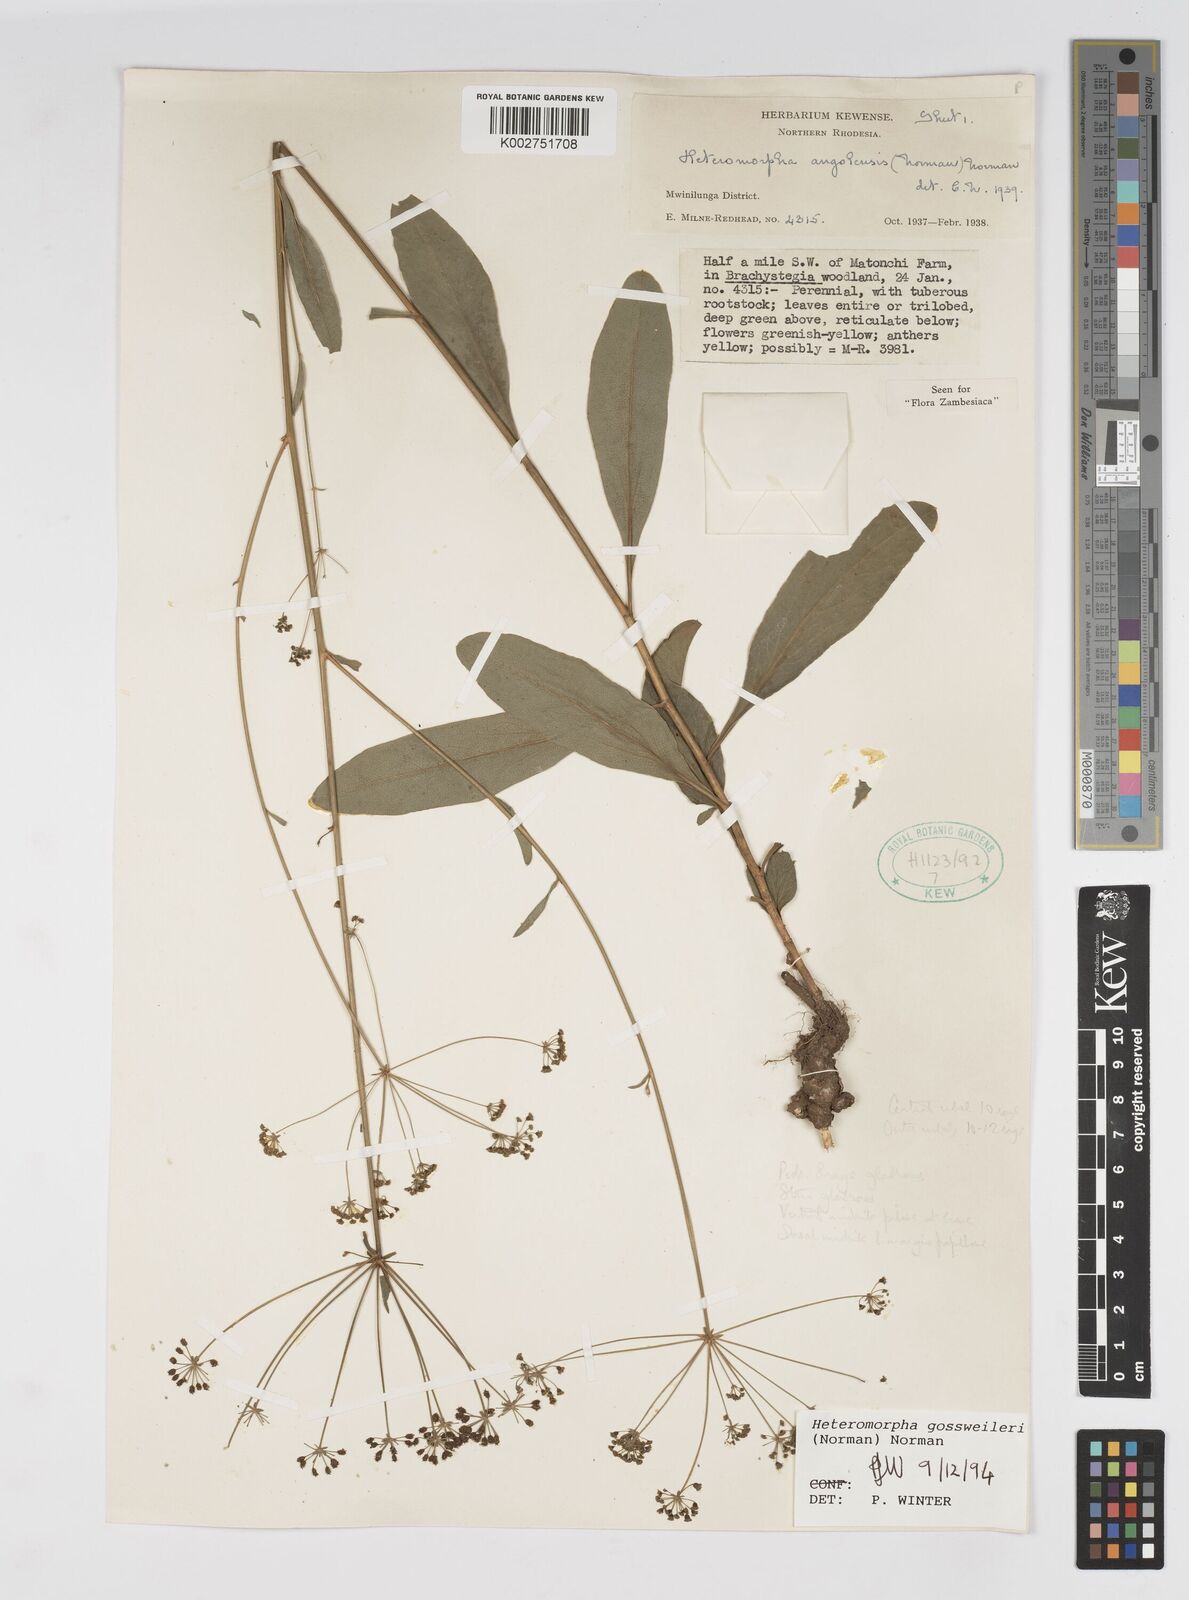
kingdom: Plantae
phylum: Tracheophyta
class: Magnoliopsida
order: Apiales
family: Apiaceae
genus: Heteromorpha
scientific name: Heteromorpha gossweileri
